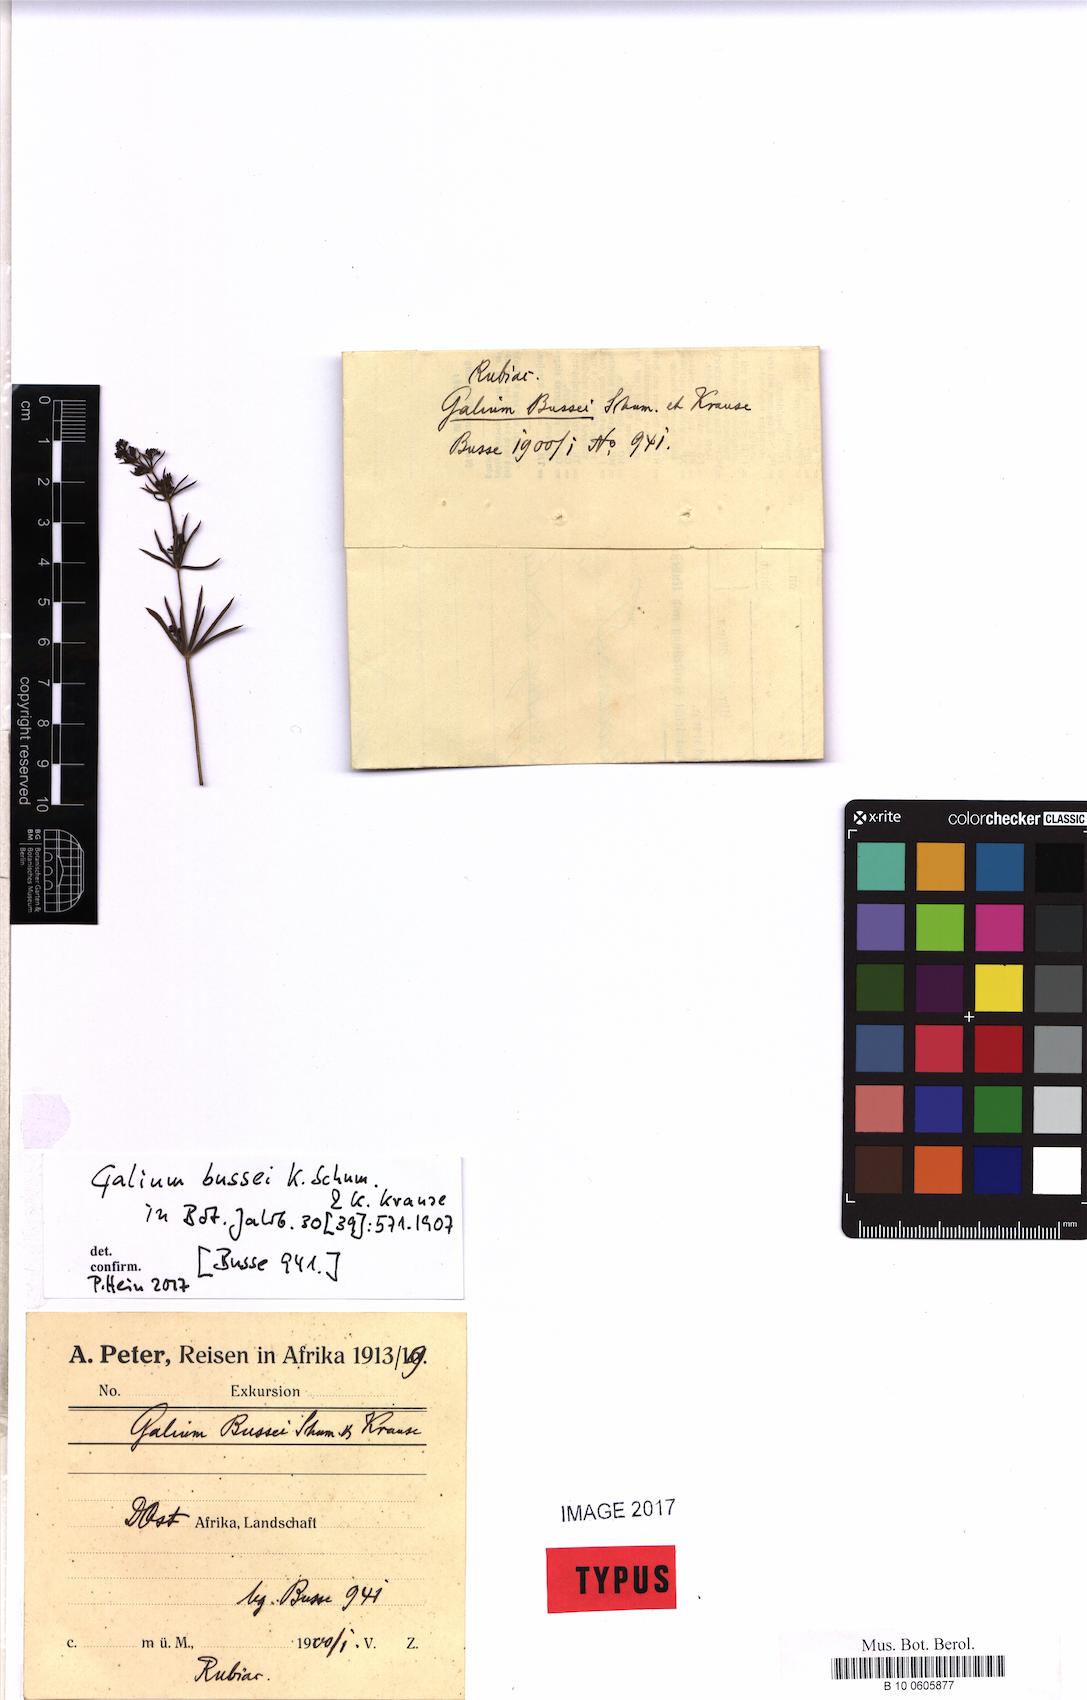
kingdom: Plantae
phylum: Tracheophyta
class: Magnoliopsida
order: Gentianales
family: Rubiaceae
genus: Galium
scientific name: Galium bussei
